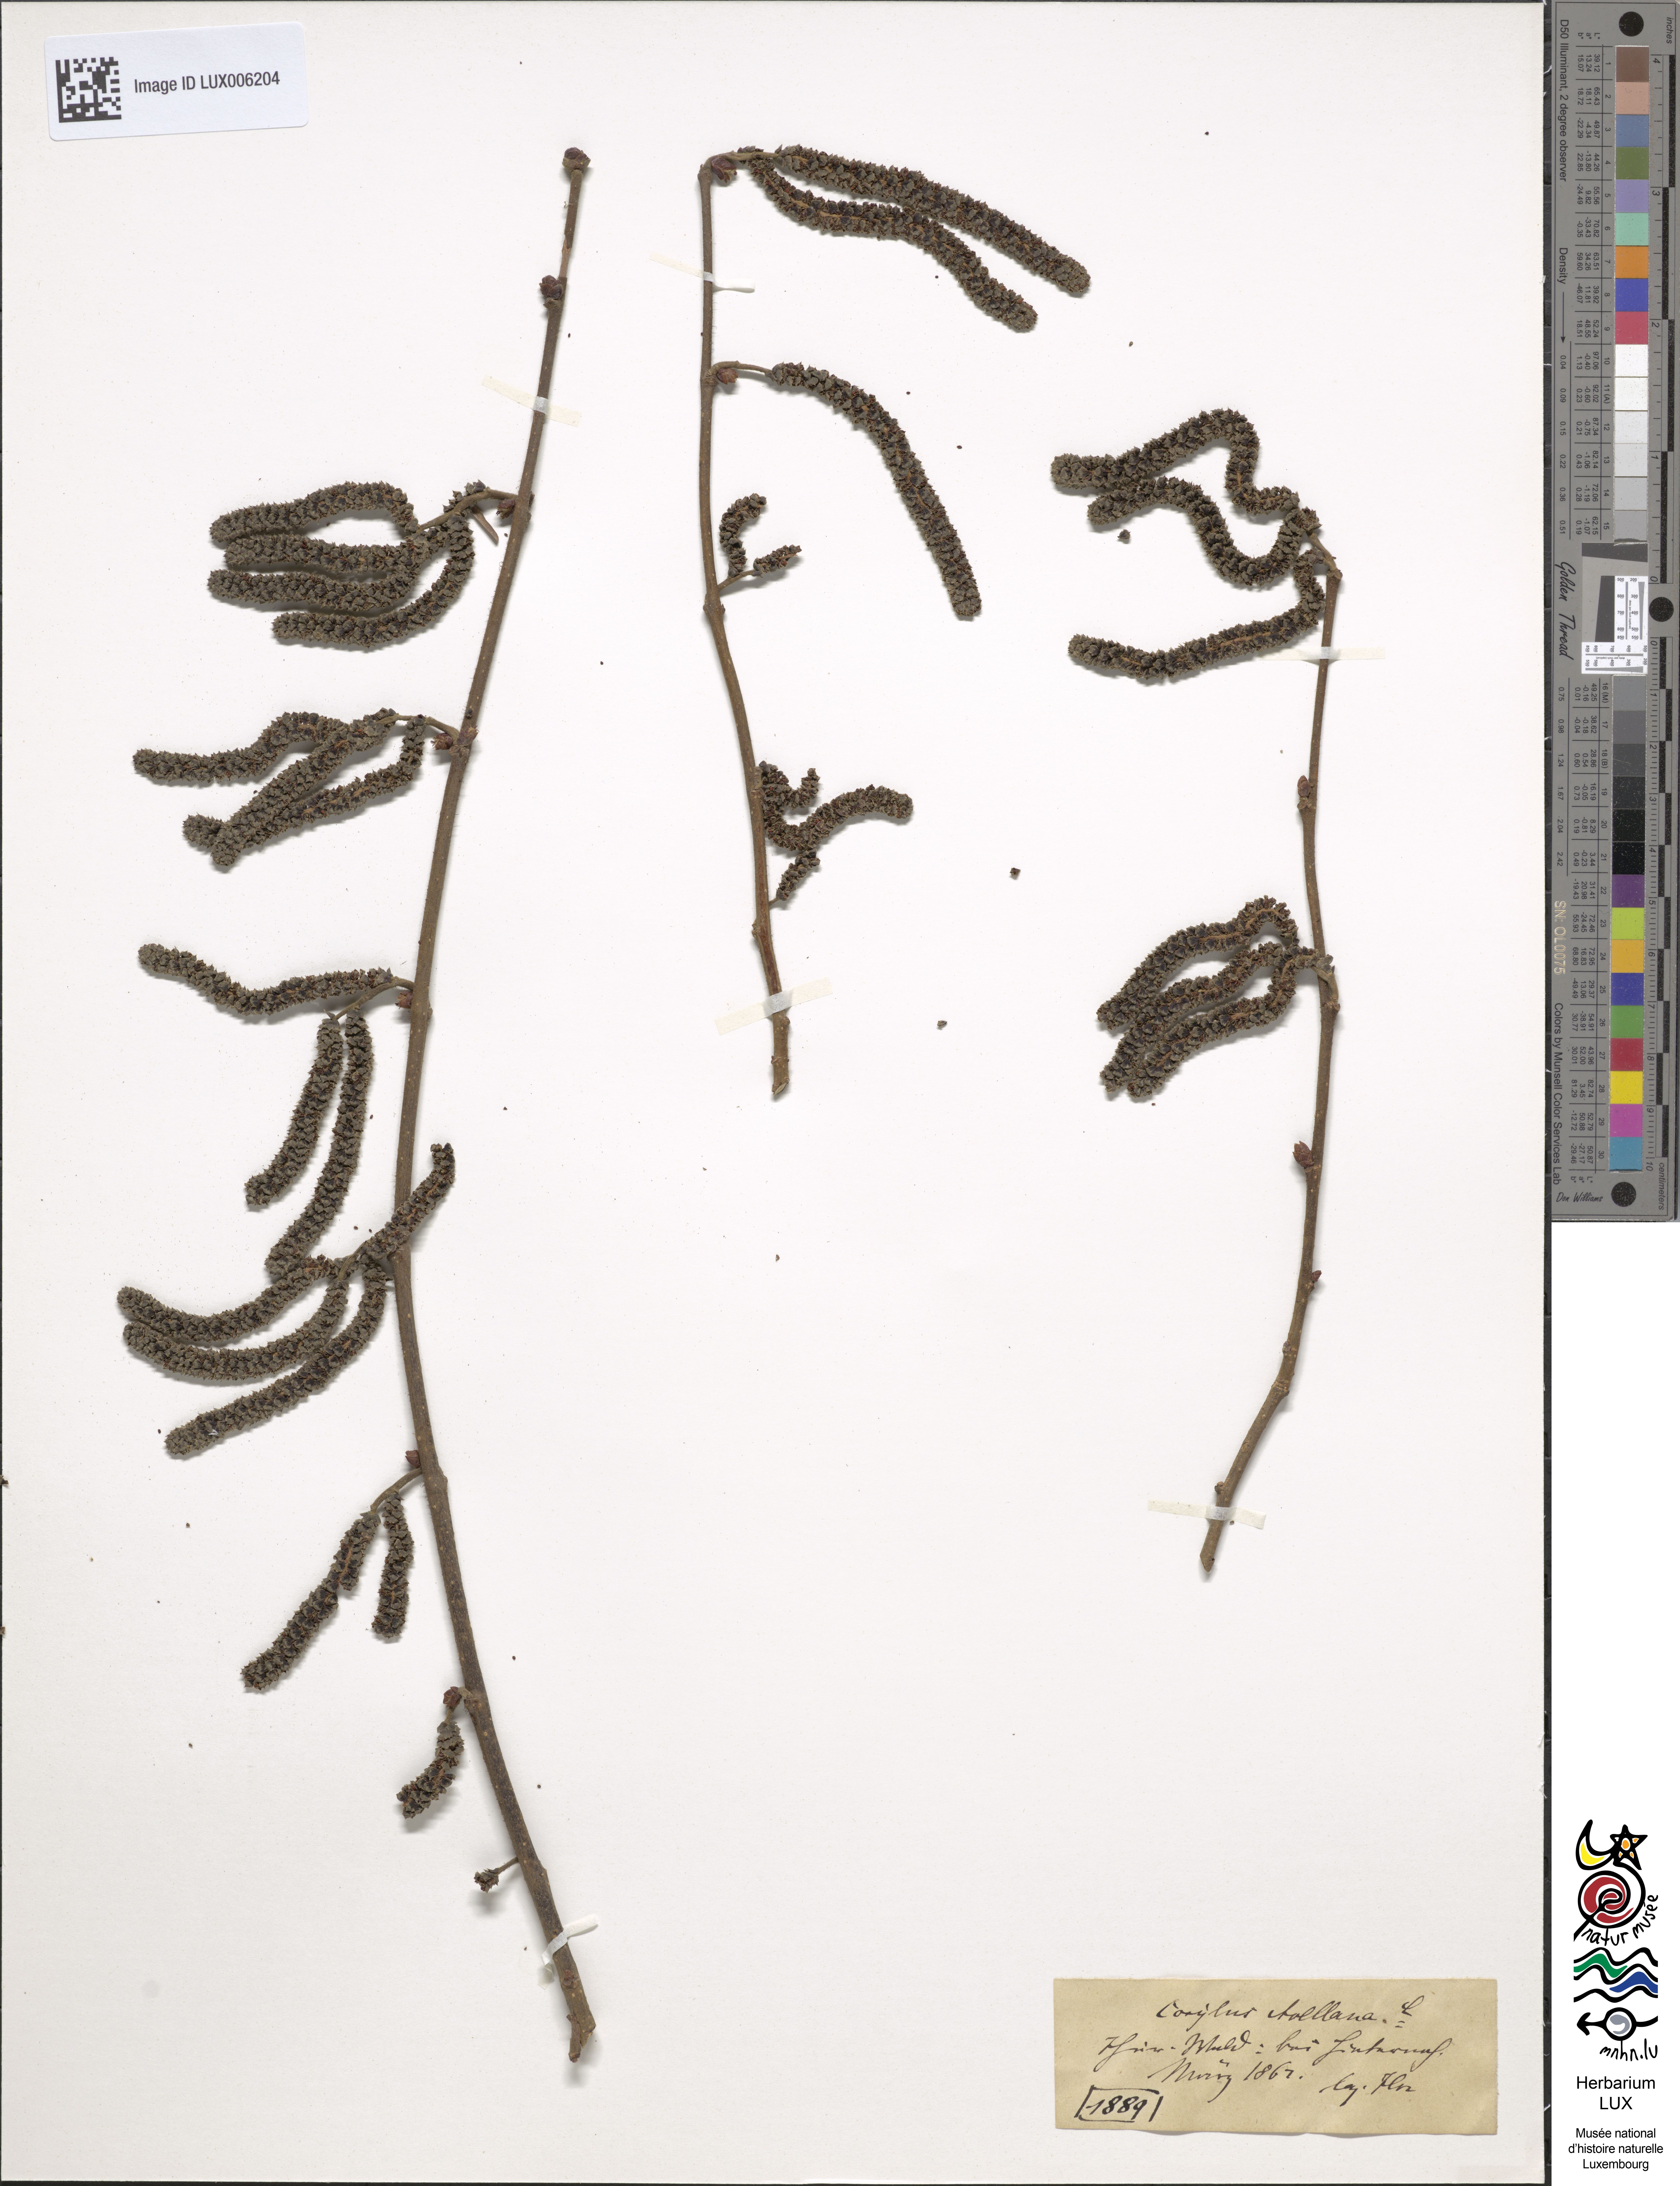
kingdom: Plantae
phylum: Tracheophyta
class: Magnoliopsida
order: Fagales
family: Betulaceae
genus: Corylus
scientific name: Corylus avellana
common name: European hazel
